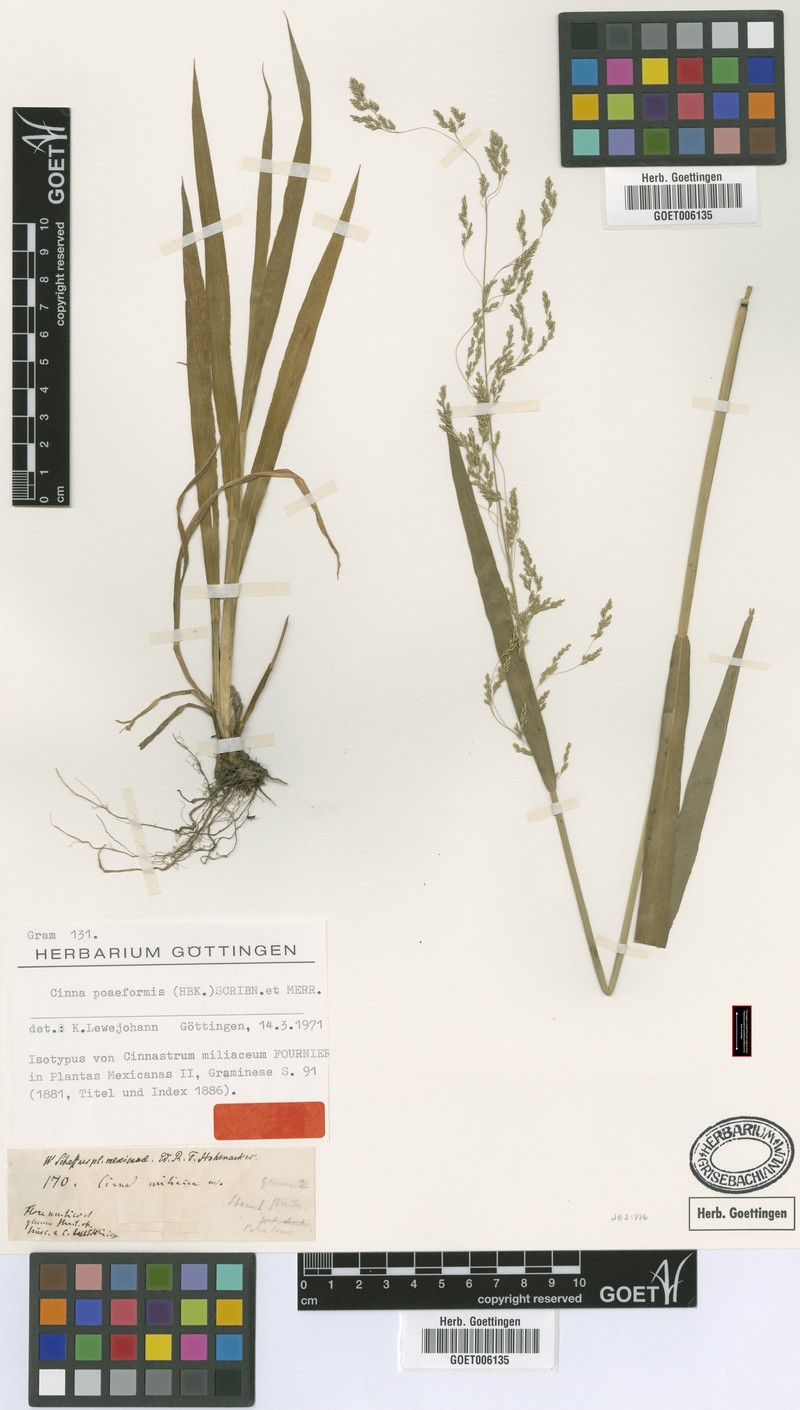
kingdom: Plantae
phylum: Tracheophyta
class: Liliopsida
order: Poales
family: Poaceae
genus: Cinnastrum
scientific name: Cinnastrum poiforme
